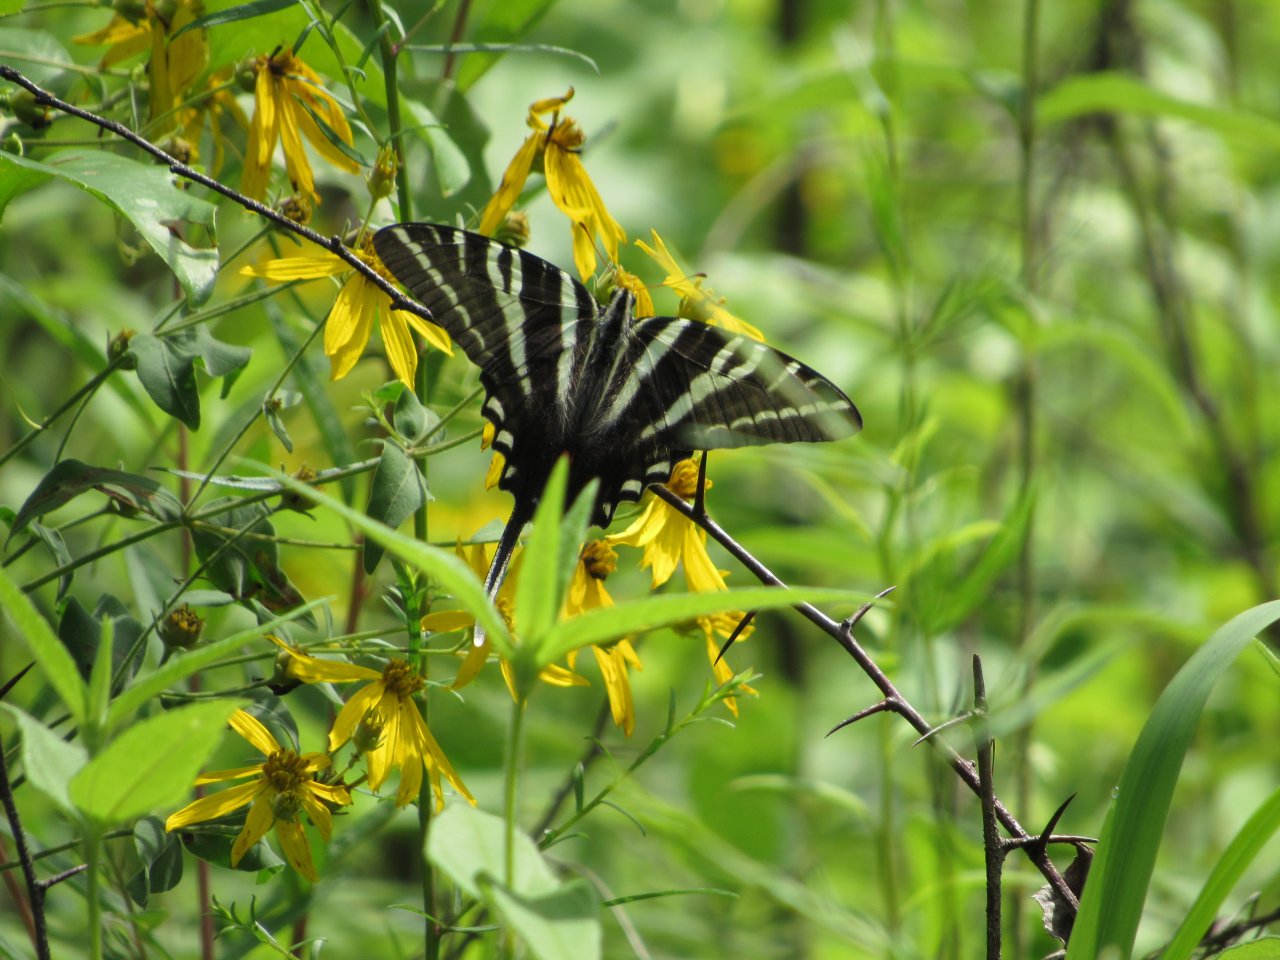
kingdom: Animalia
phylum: Arthropoda
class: Insecta
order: Lepidoptera
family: Papilionidae
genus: Protographium
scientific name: Protographium marcellus
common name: Zebra Swallowtail
